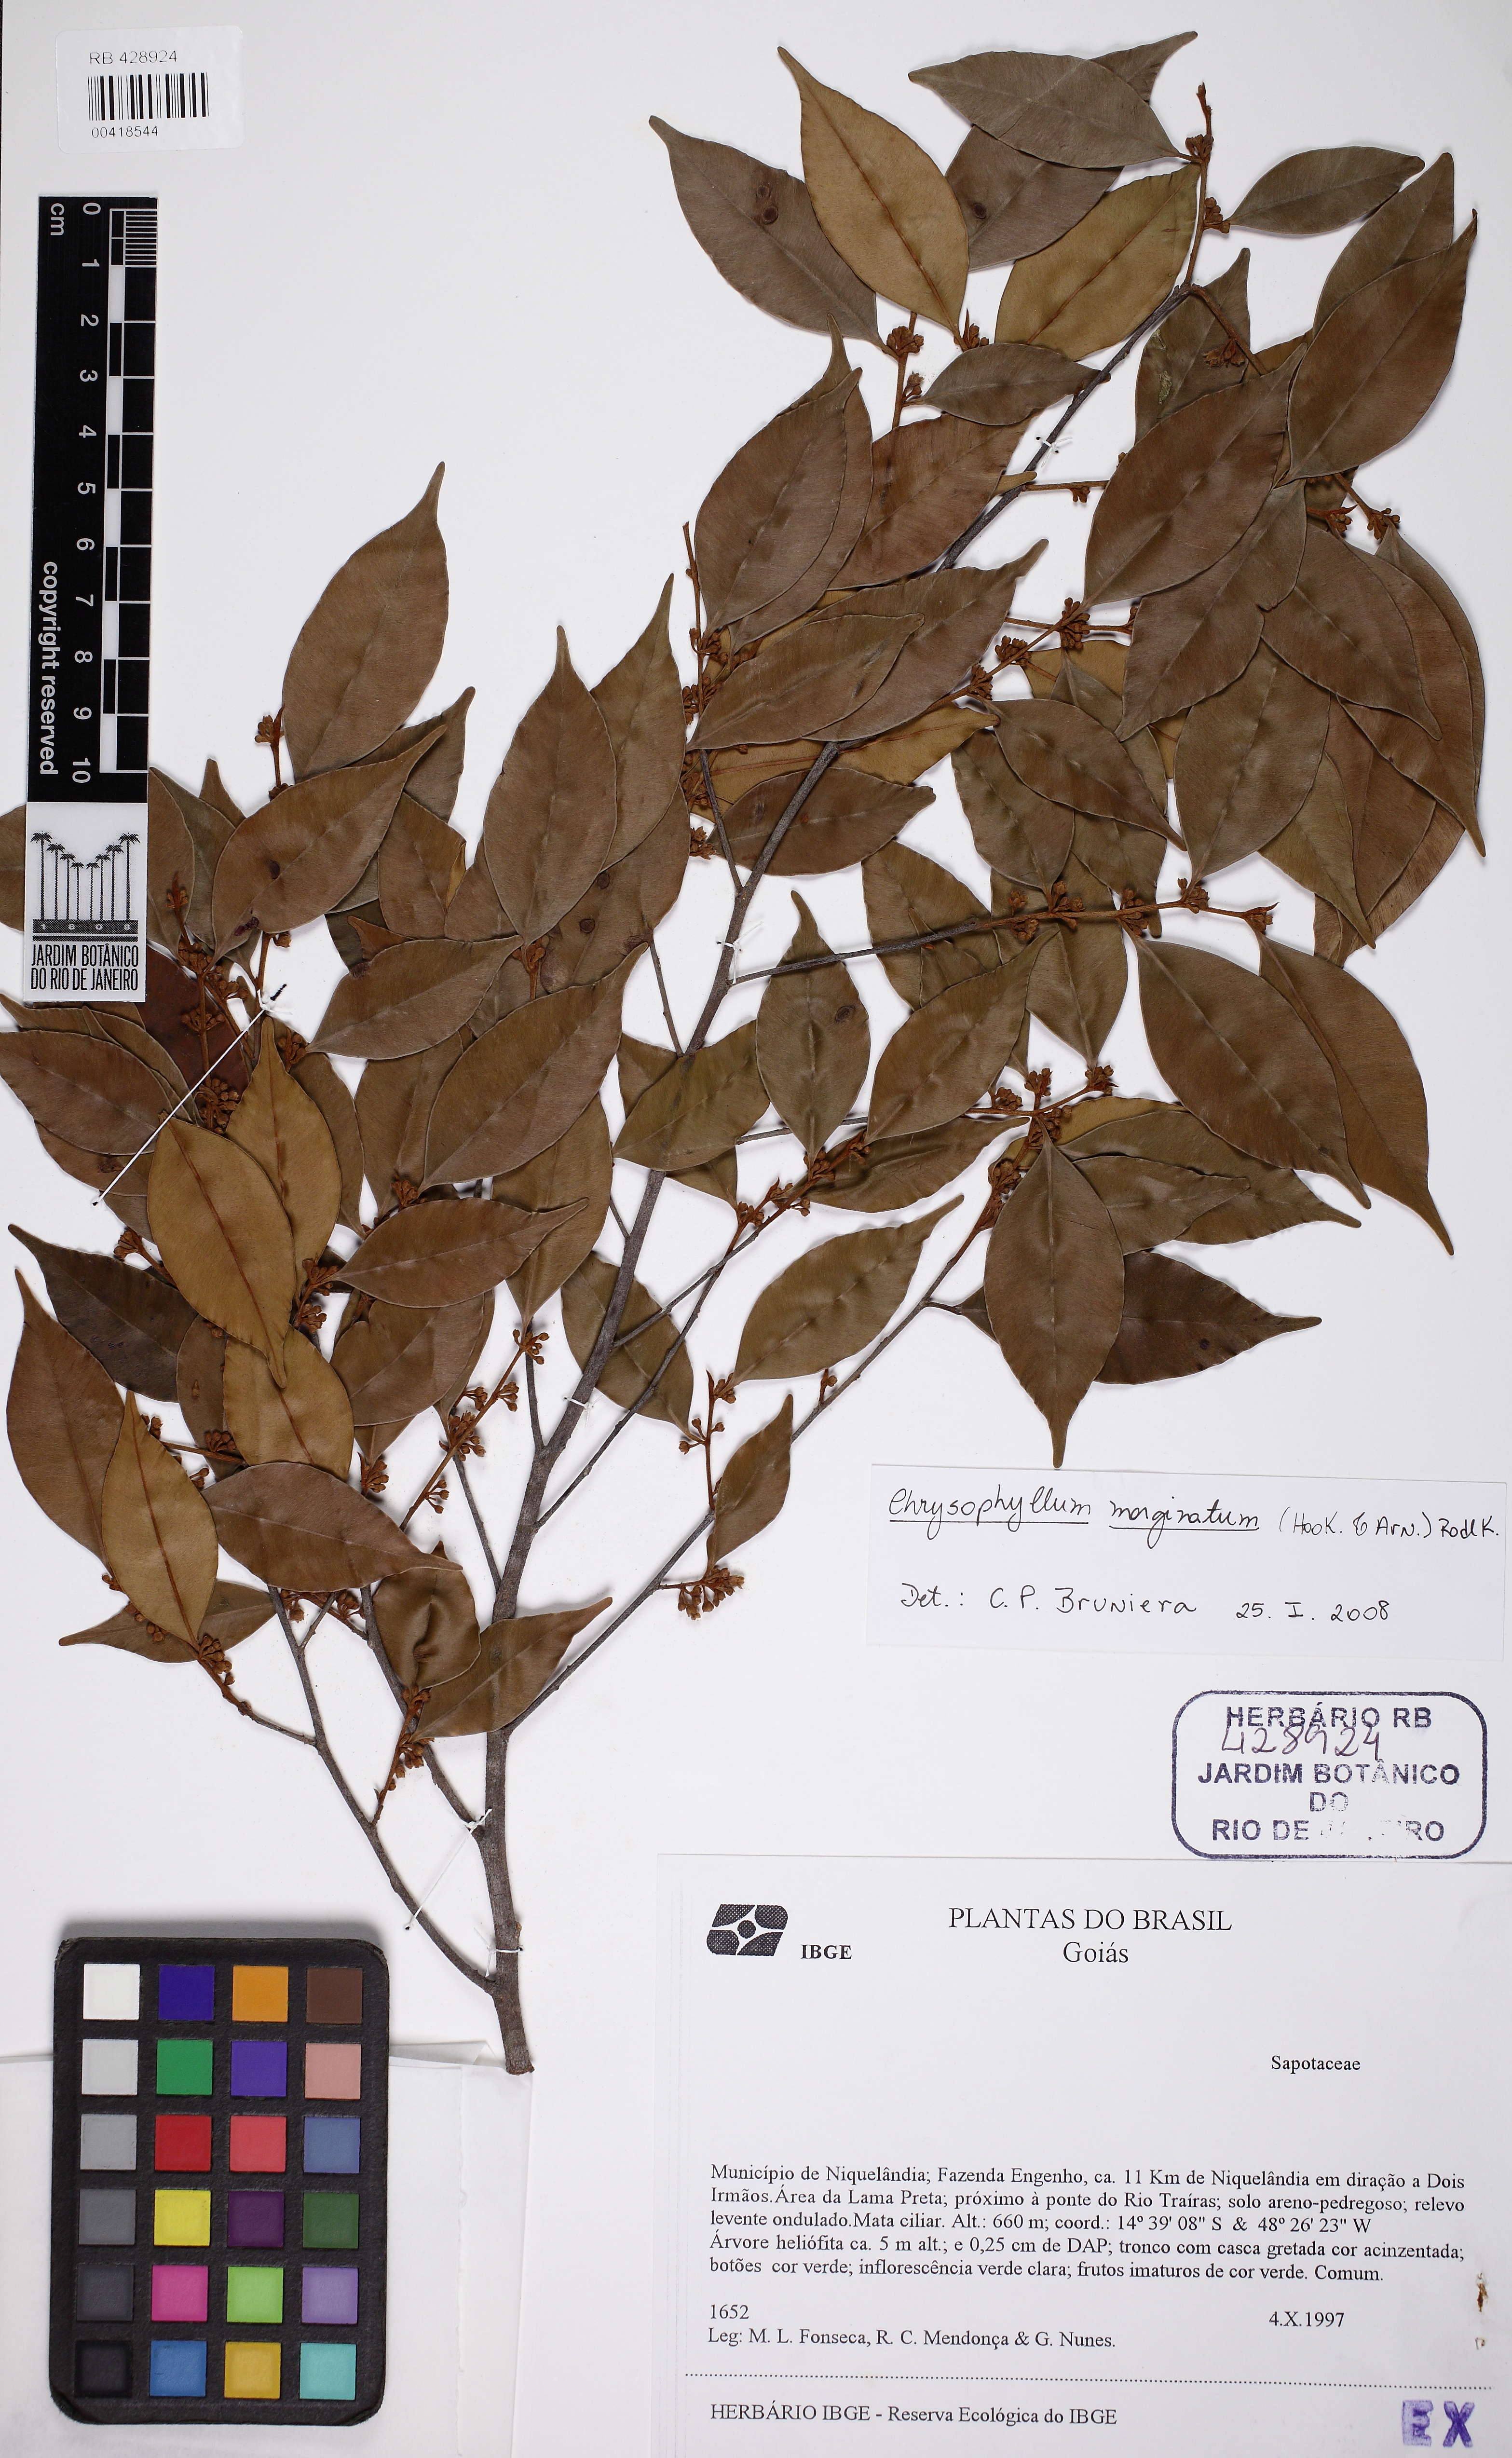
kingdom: Plantae
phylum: Tracheophyta
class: Magnoliopsida
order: Ericales
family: Sapotaceae
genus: Chrysophyllum
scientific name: Chrysophyllum marginatum
